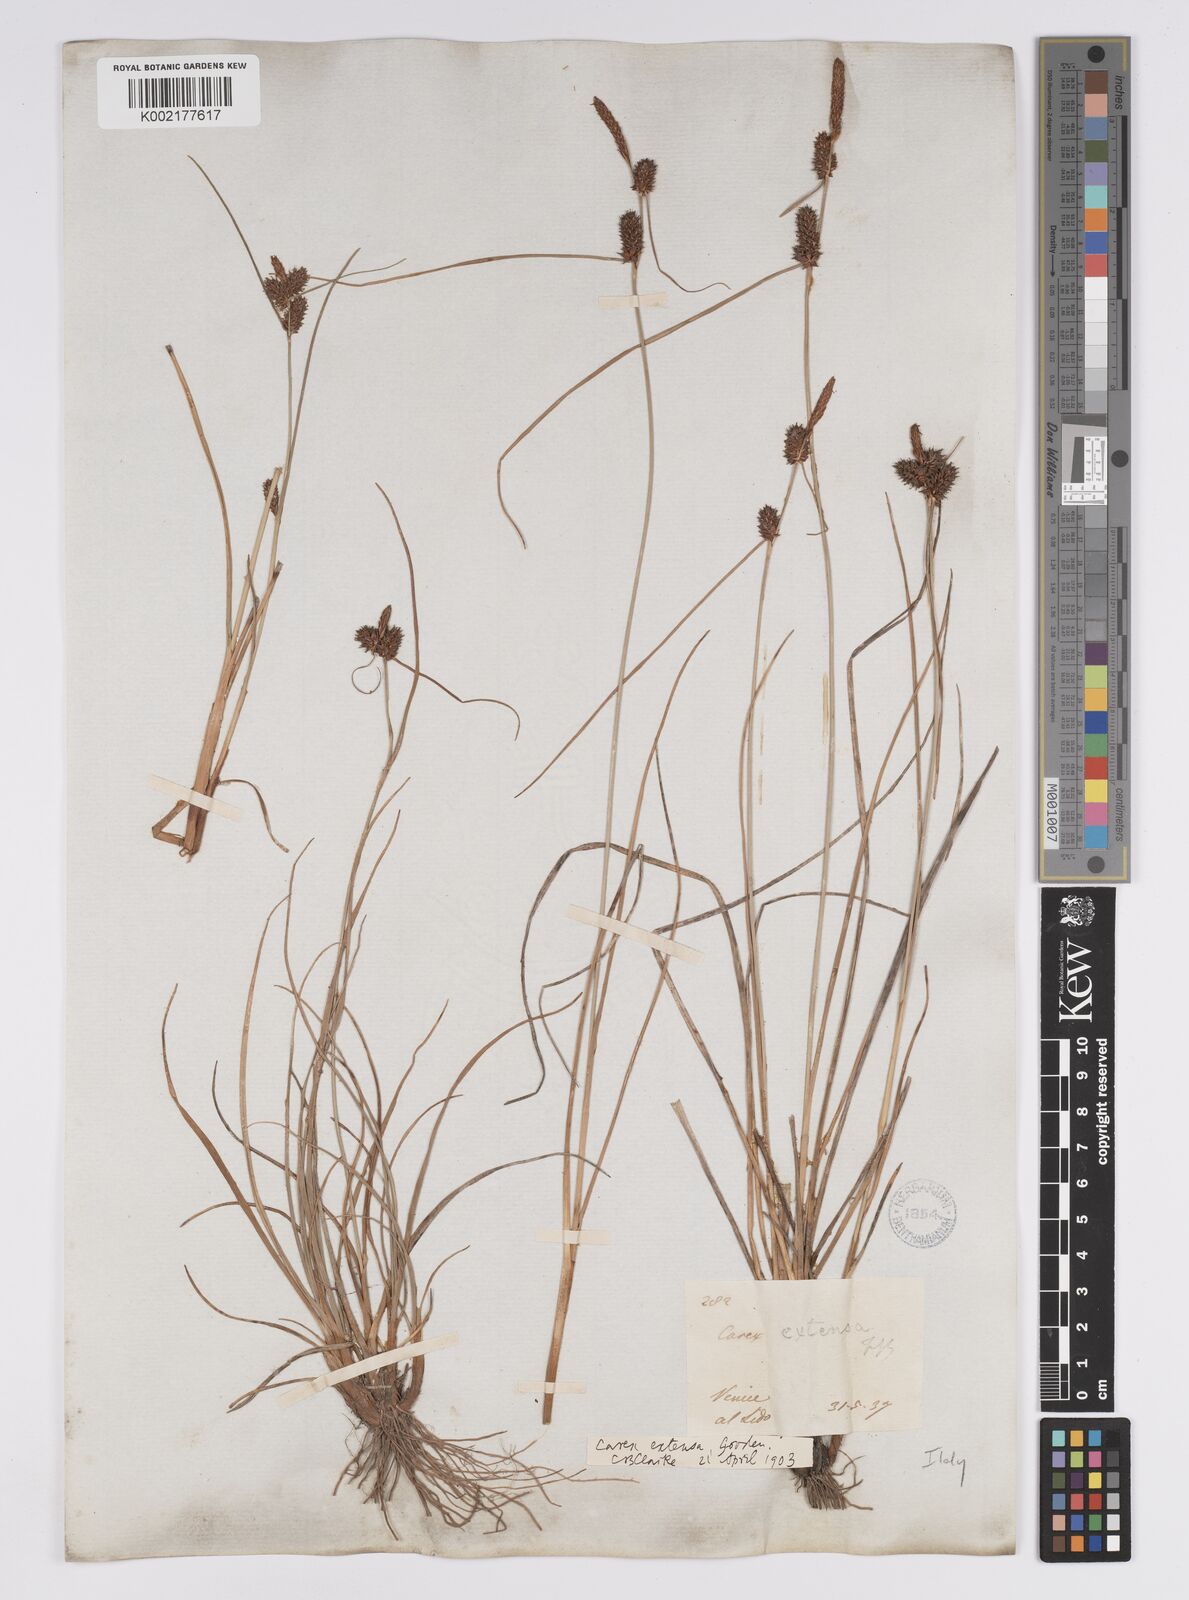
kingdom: Plantae
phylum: Tracheophyta
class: Liliopsida
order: Poales
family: Cyperaceae
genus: Carex
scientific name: Carex extensa
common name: Long-bracted sedge
